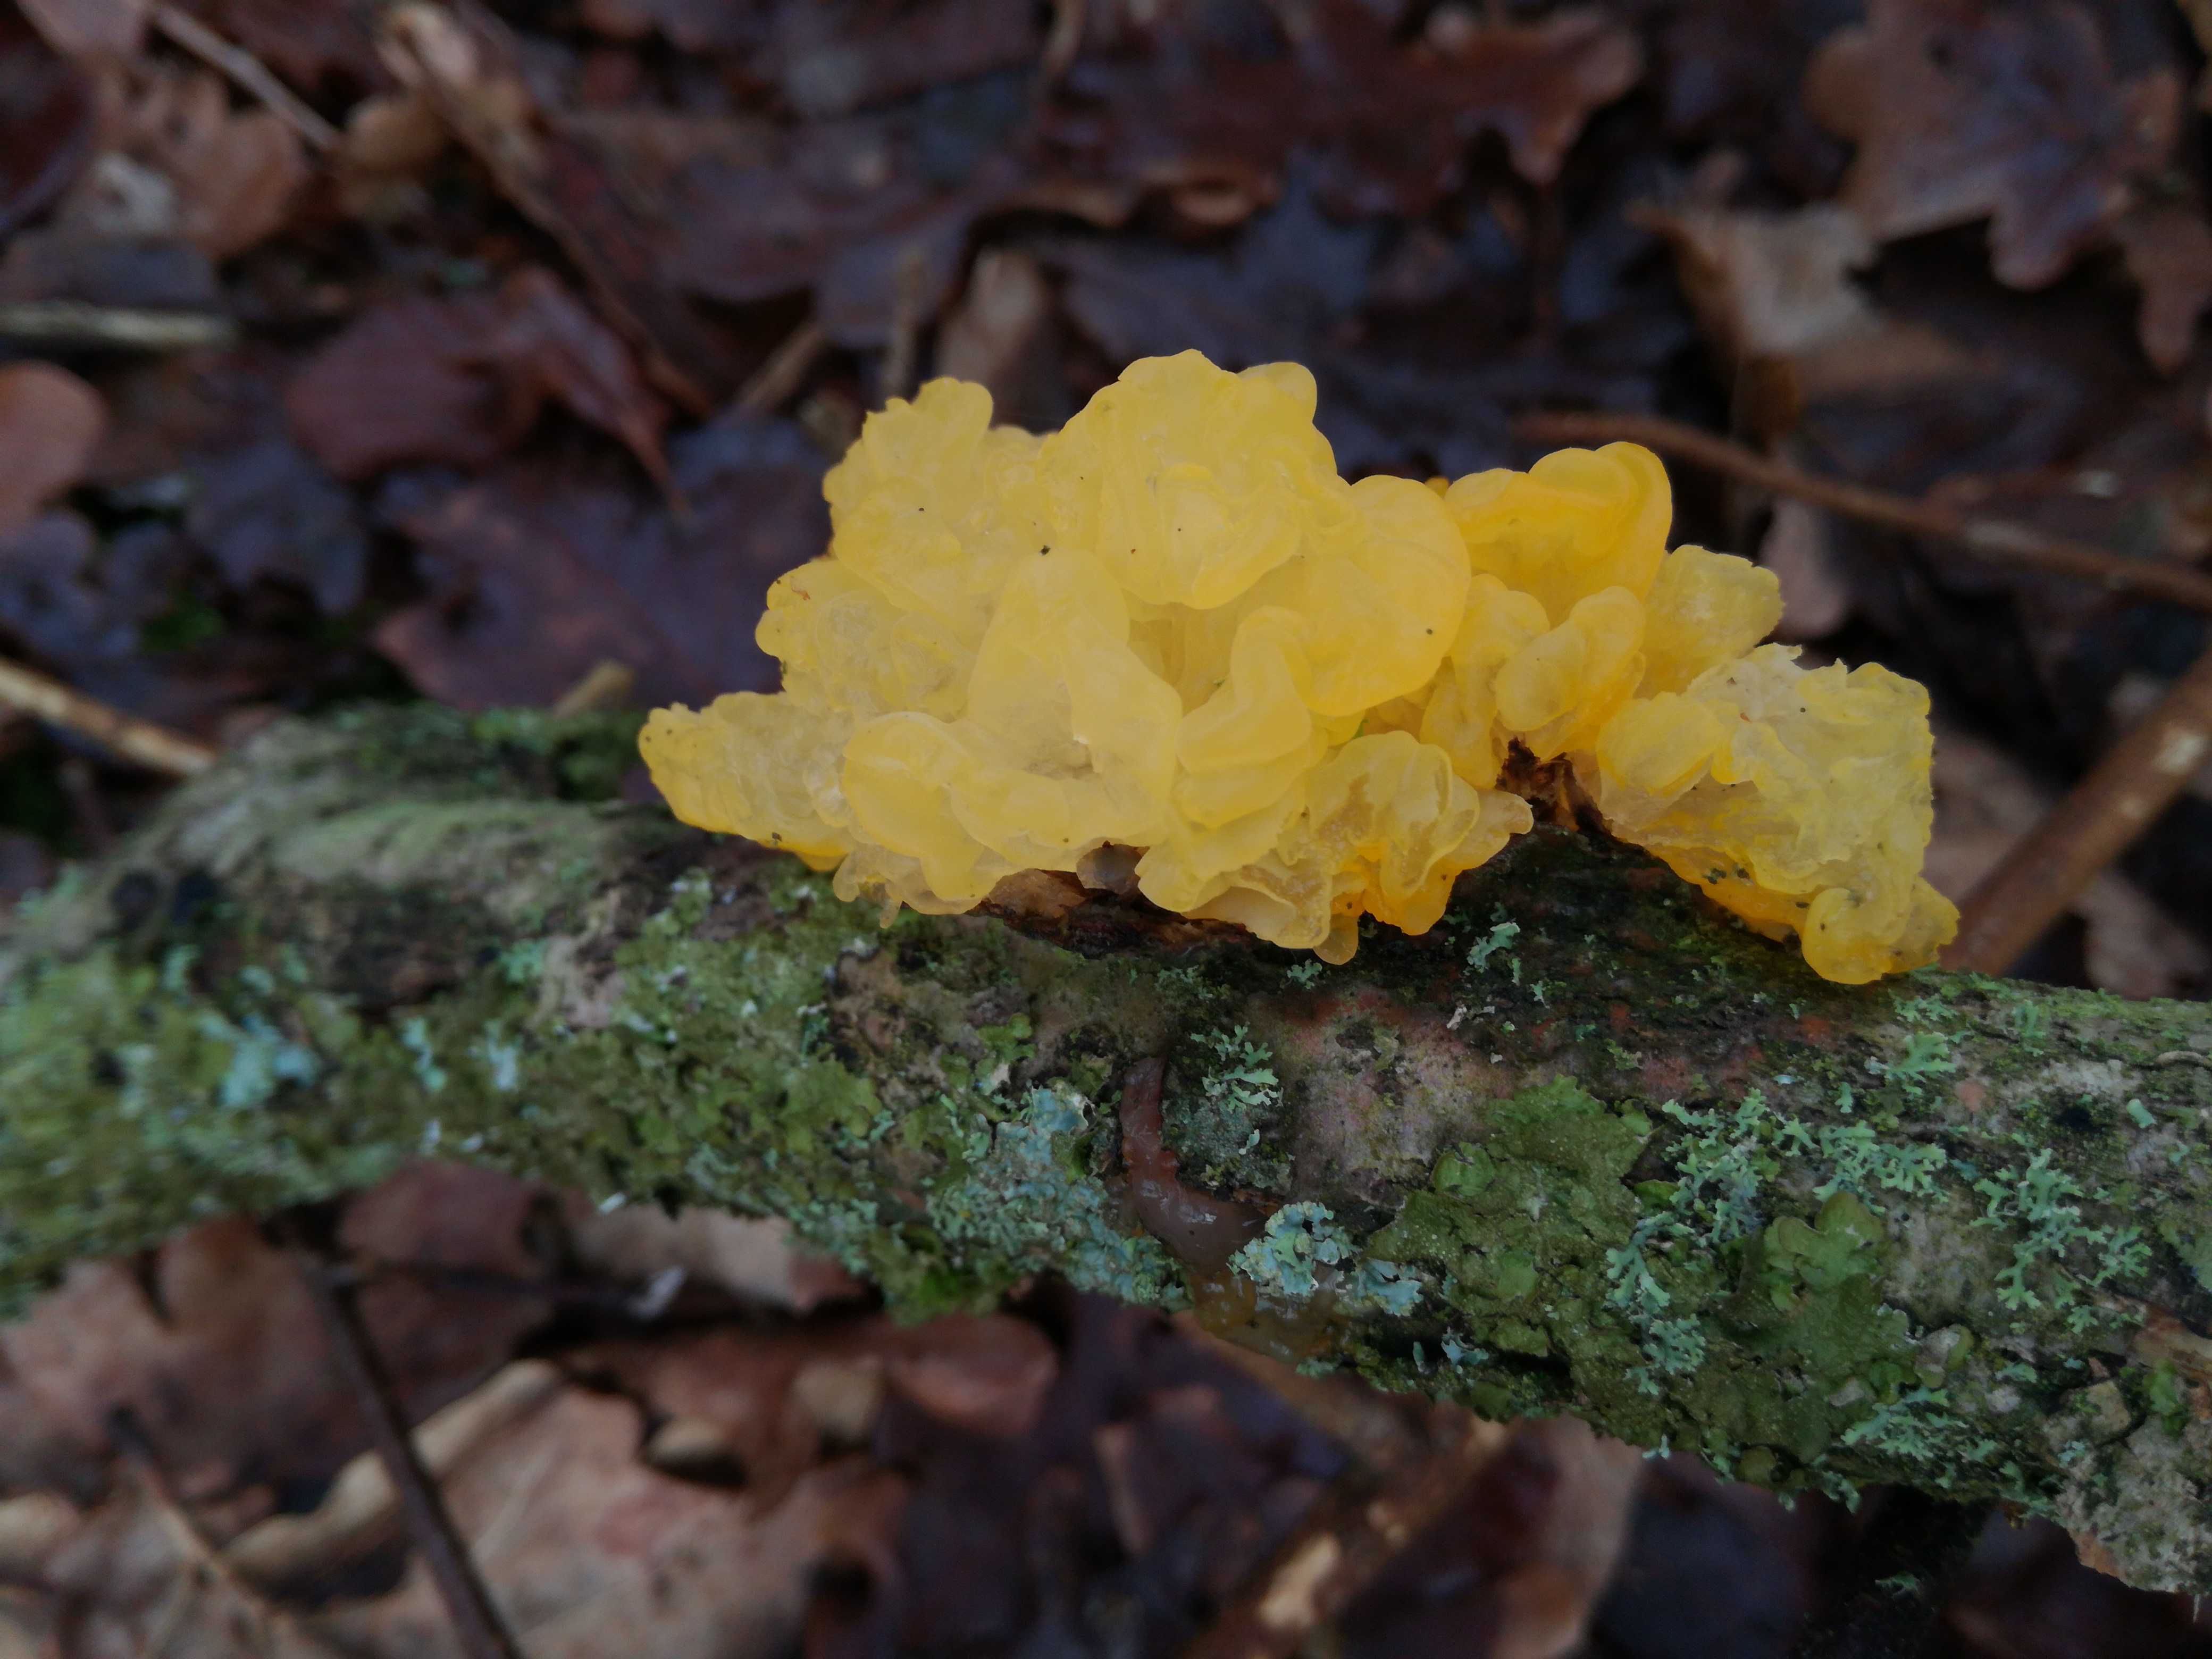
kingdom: Fungi
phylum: Basidiomycota
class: Tremellomycetes
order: Tremellales
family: Tremellaceae
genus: Tremella
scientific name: Tremella mesenterica
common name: gul bævresvamp
